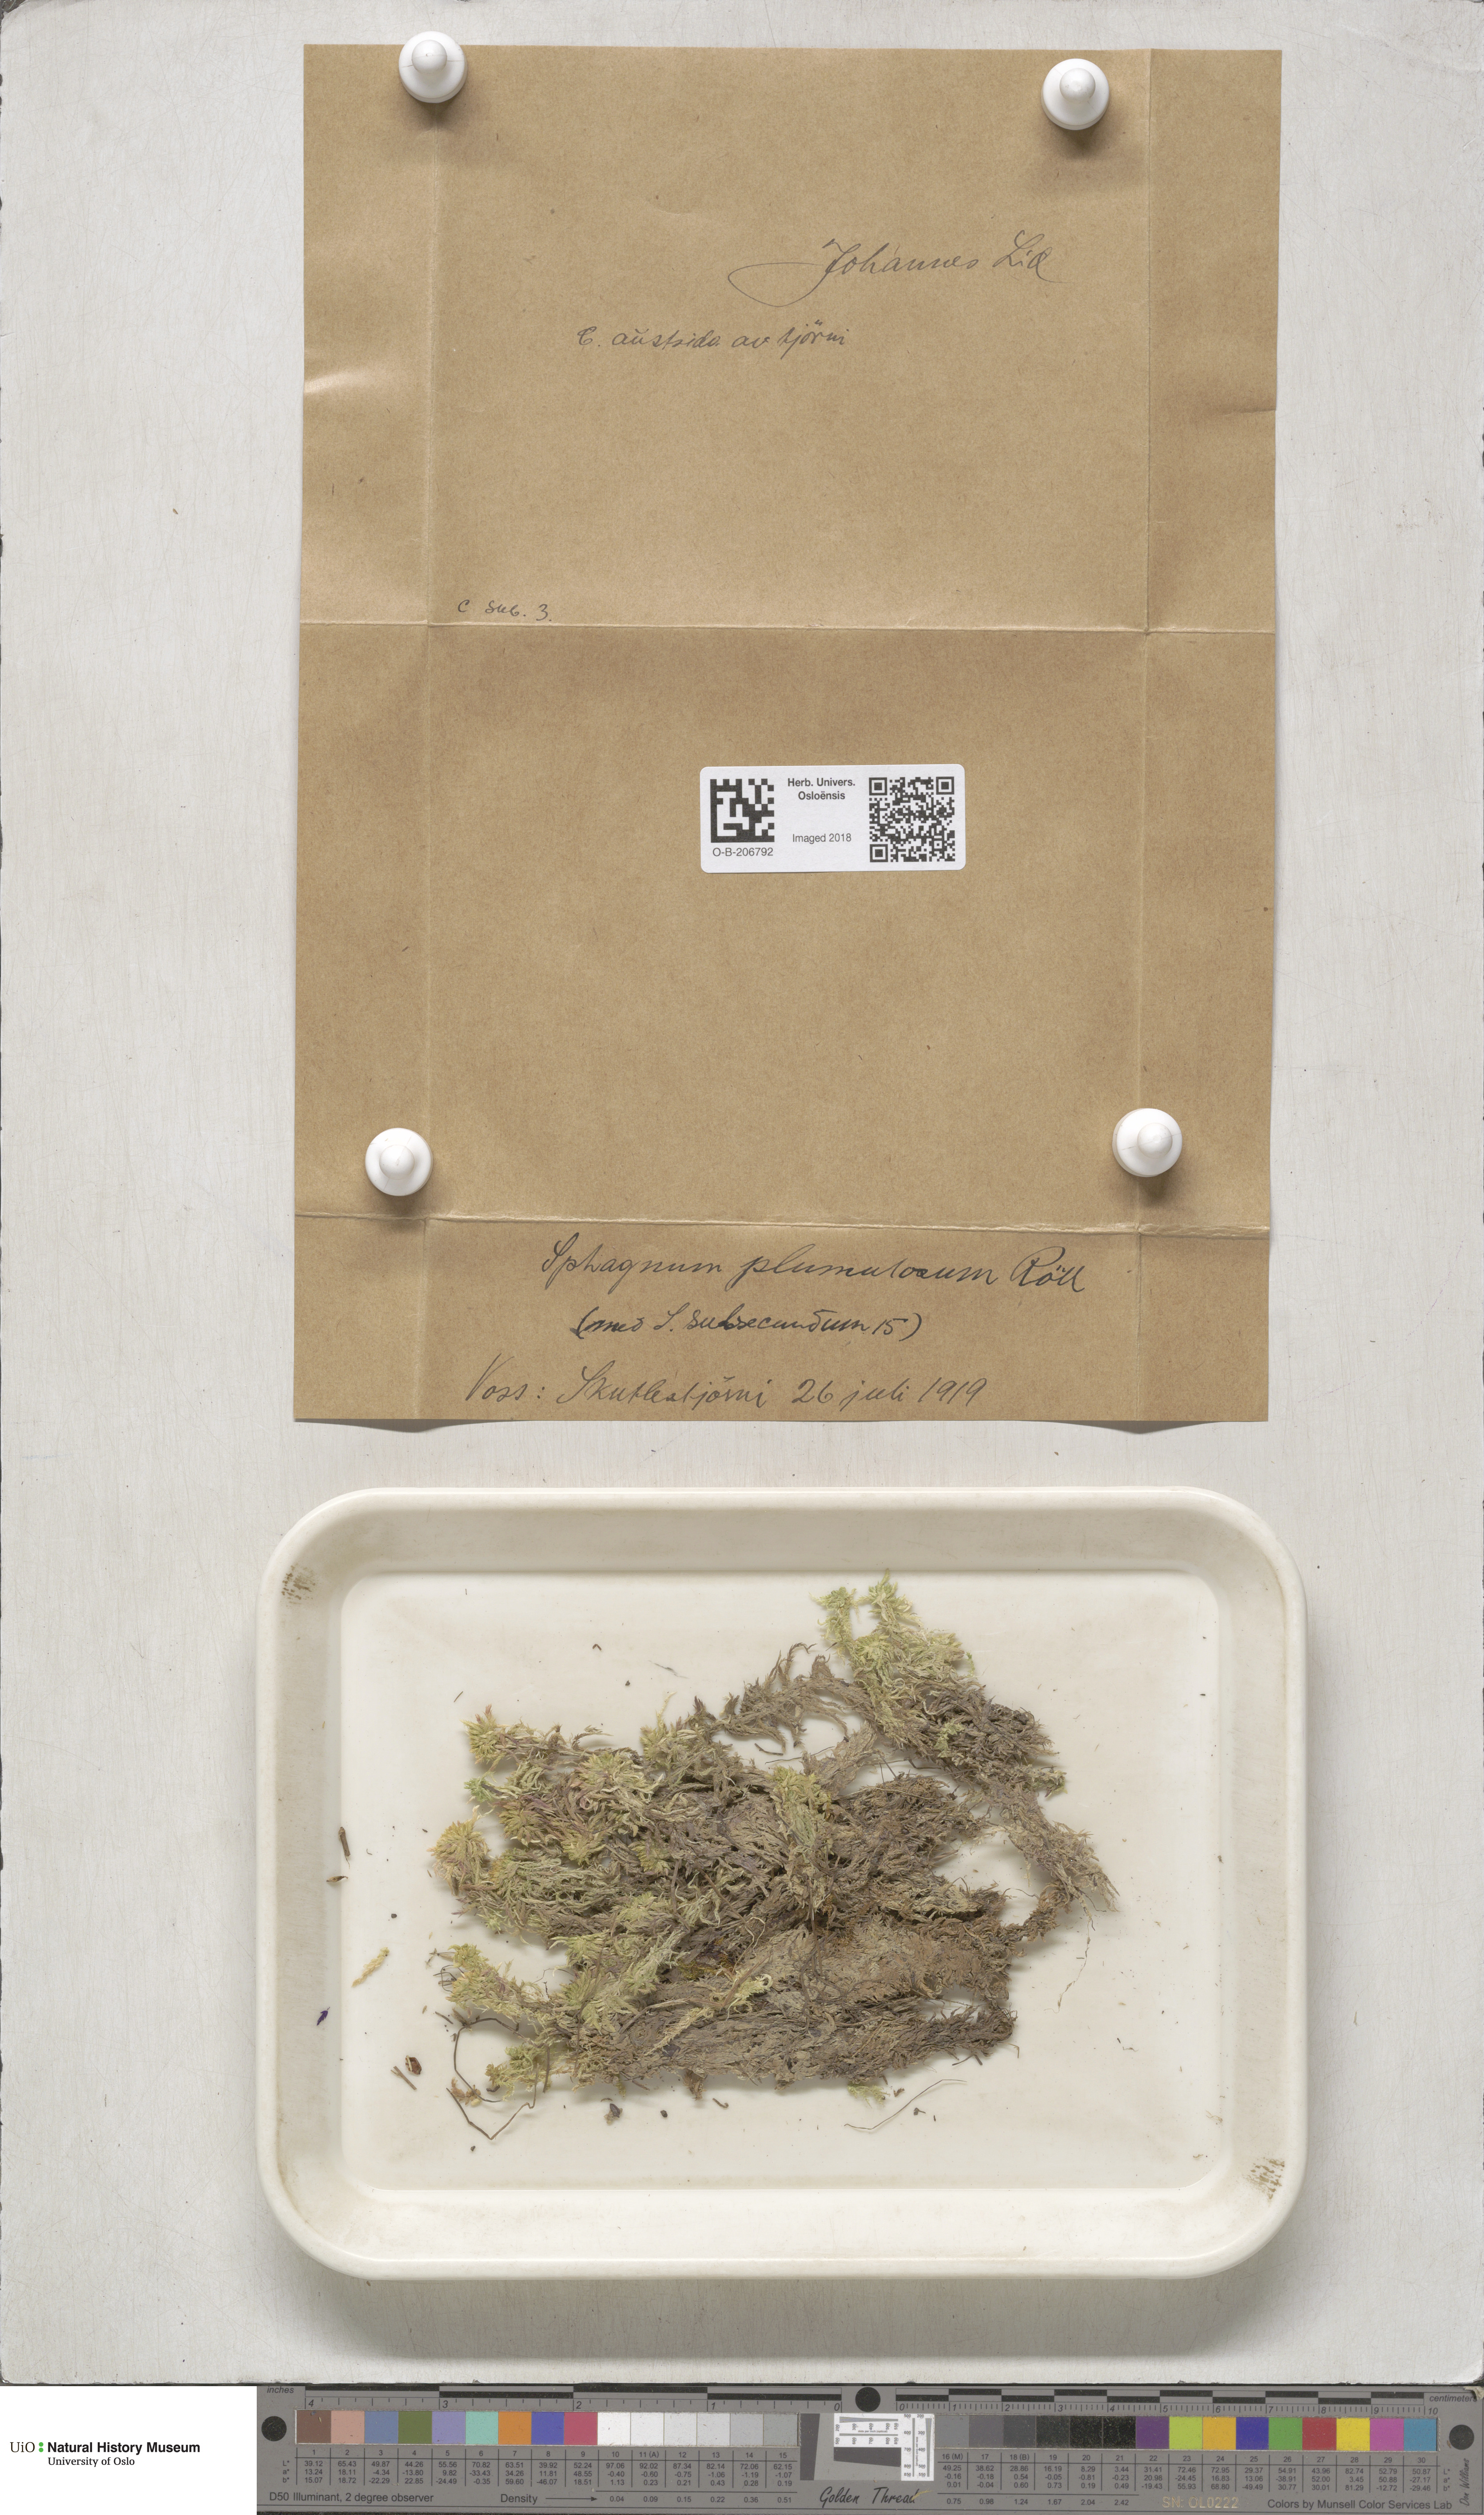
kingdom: Plantae
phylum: Bryophyta
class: Sphagnopsida
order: Sphagnales
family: Sphagnaceae
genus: Sphagnum
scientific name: Sphagnum subnitens
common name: Lustrous bog-moss
